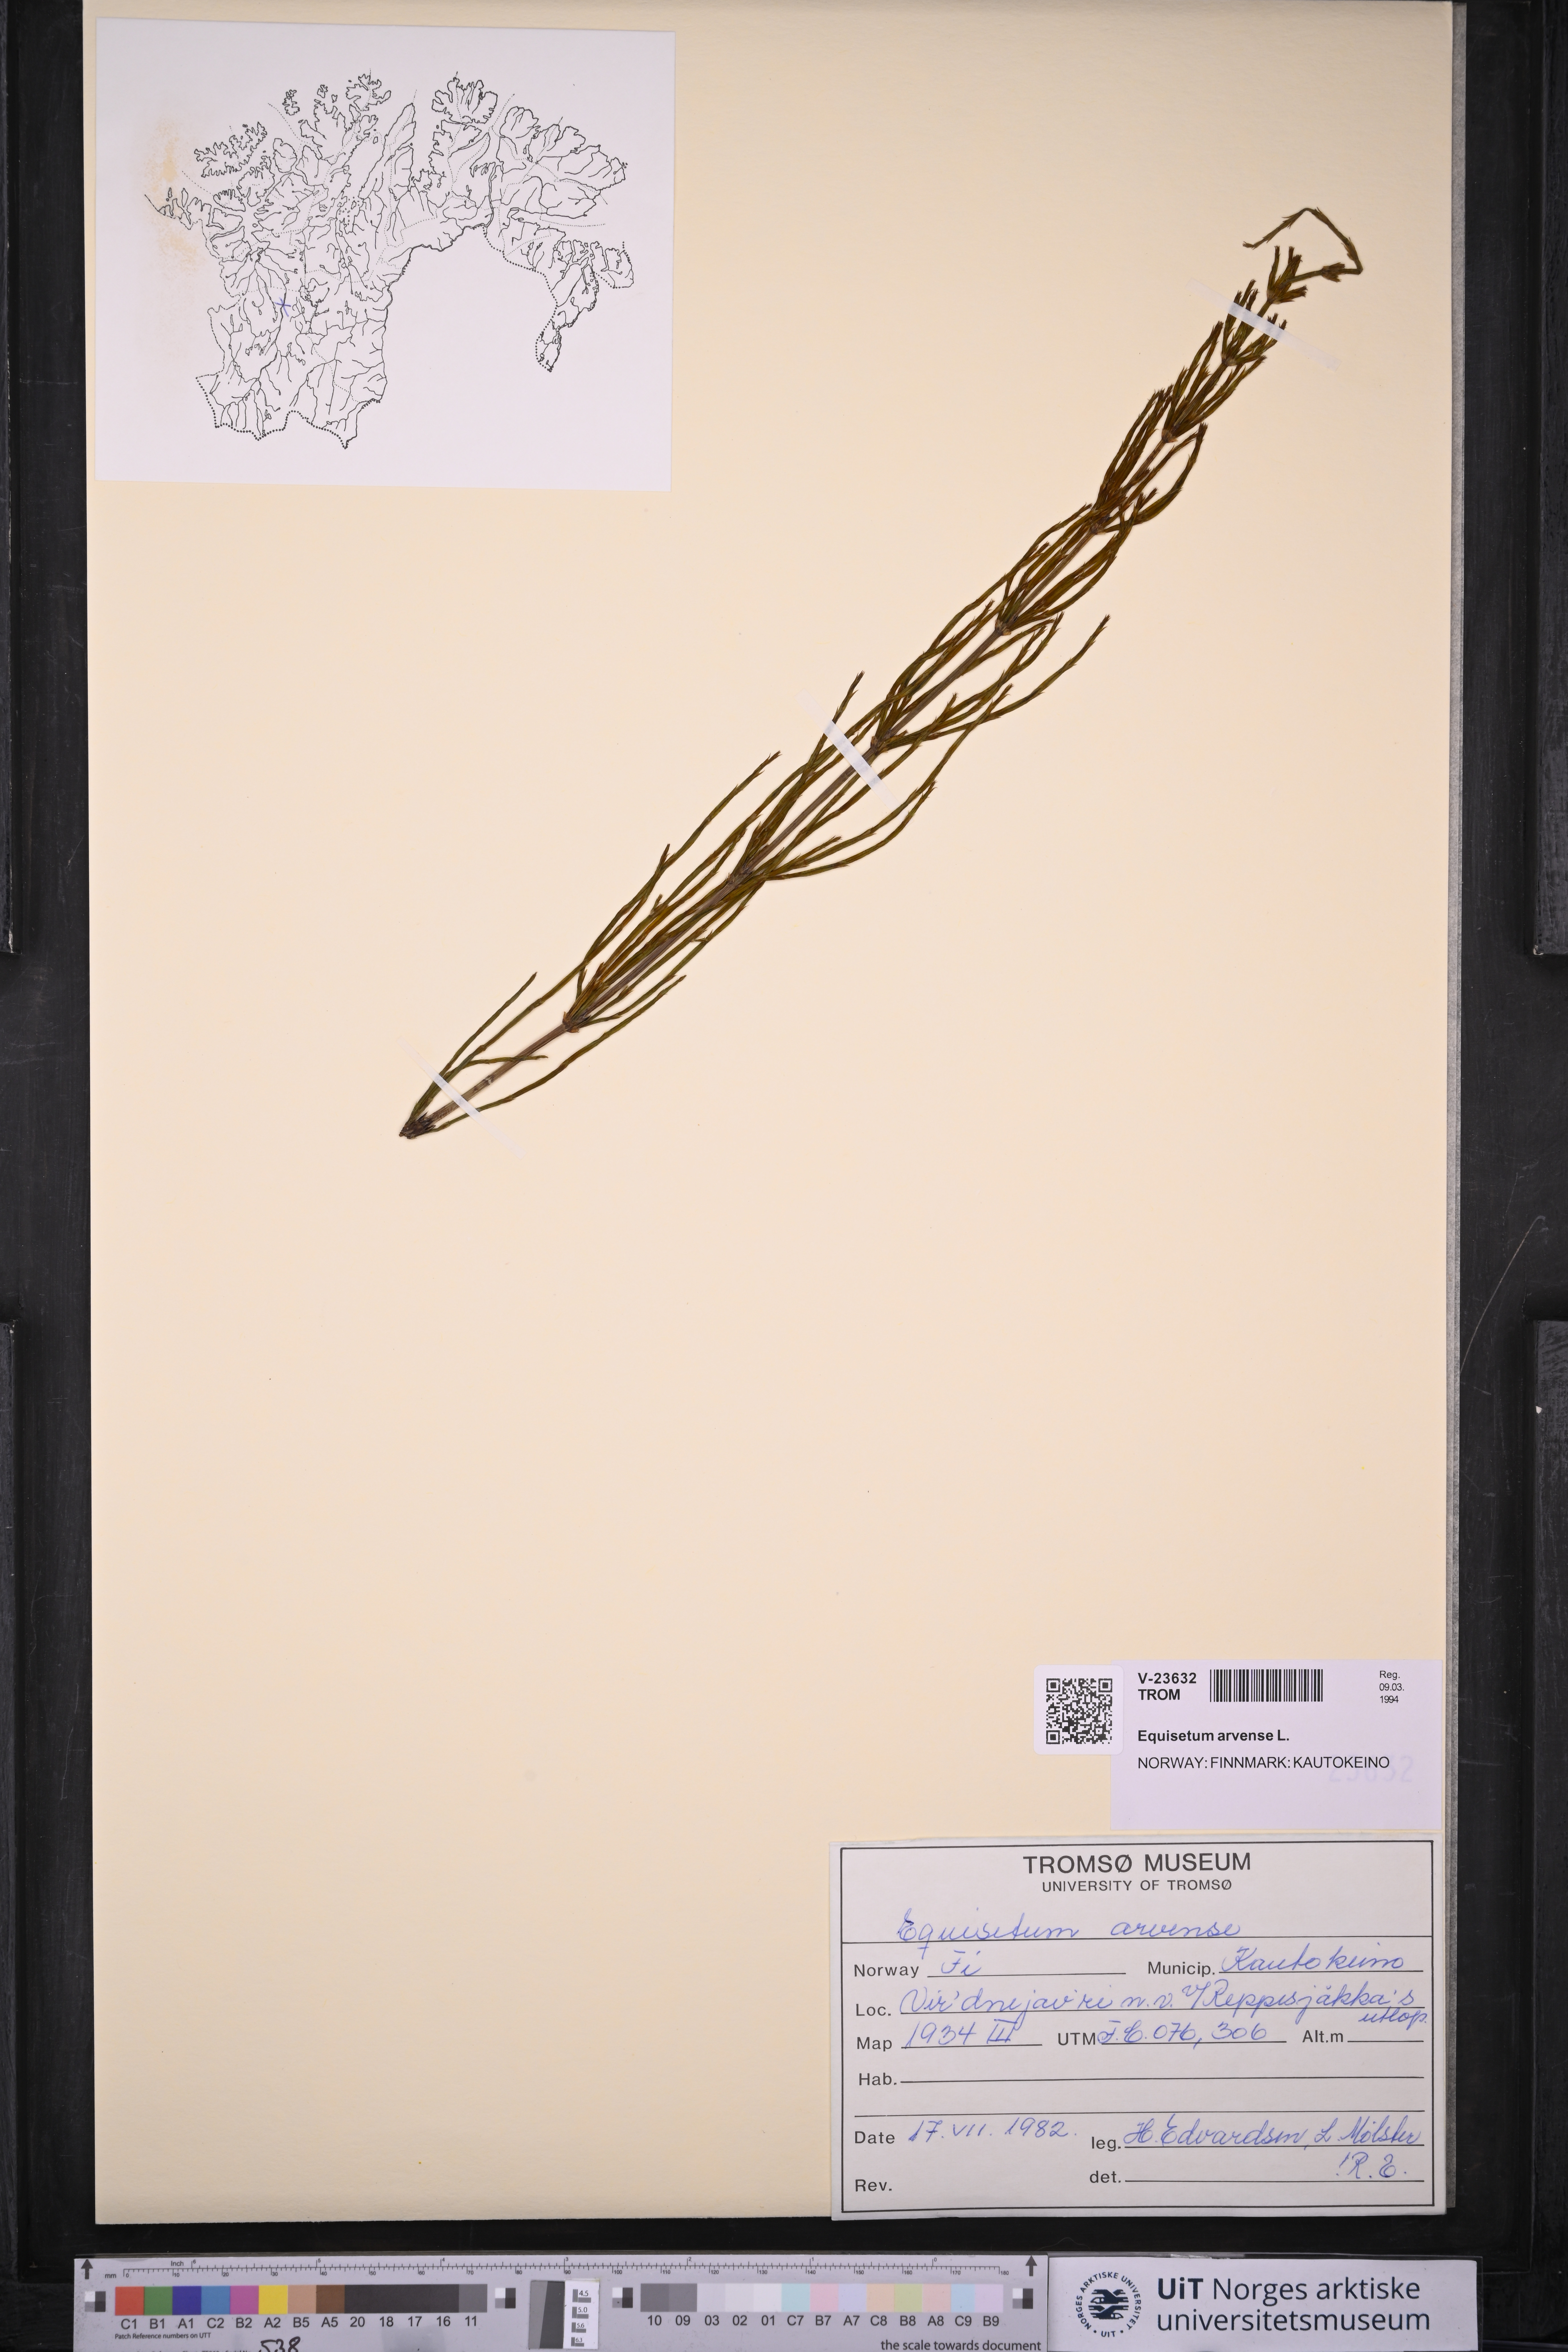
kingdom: Plantae
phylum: Tracheophyta
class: Polypodiopsida
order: Equisetales
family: Equisetaceae
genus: Equisetum
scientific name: Equisetum arvense
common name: Field horsetail
